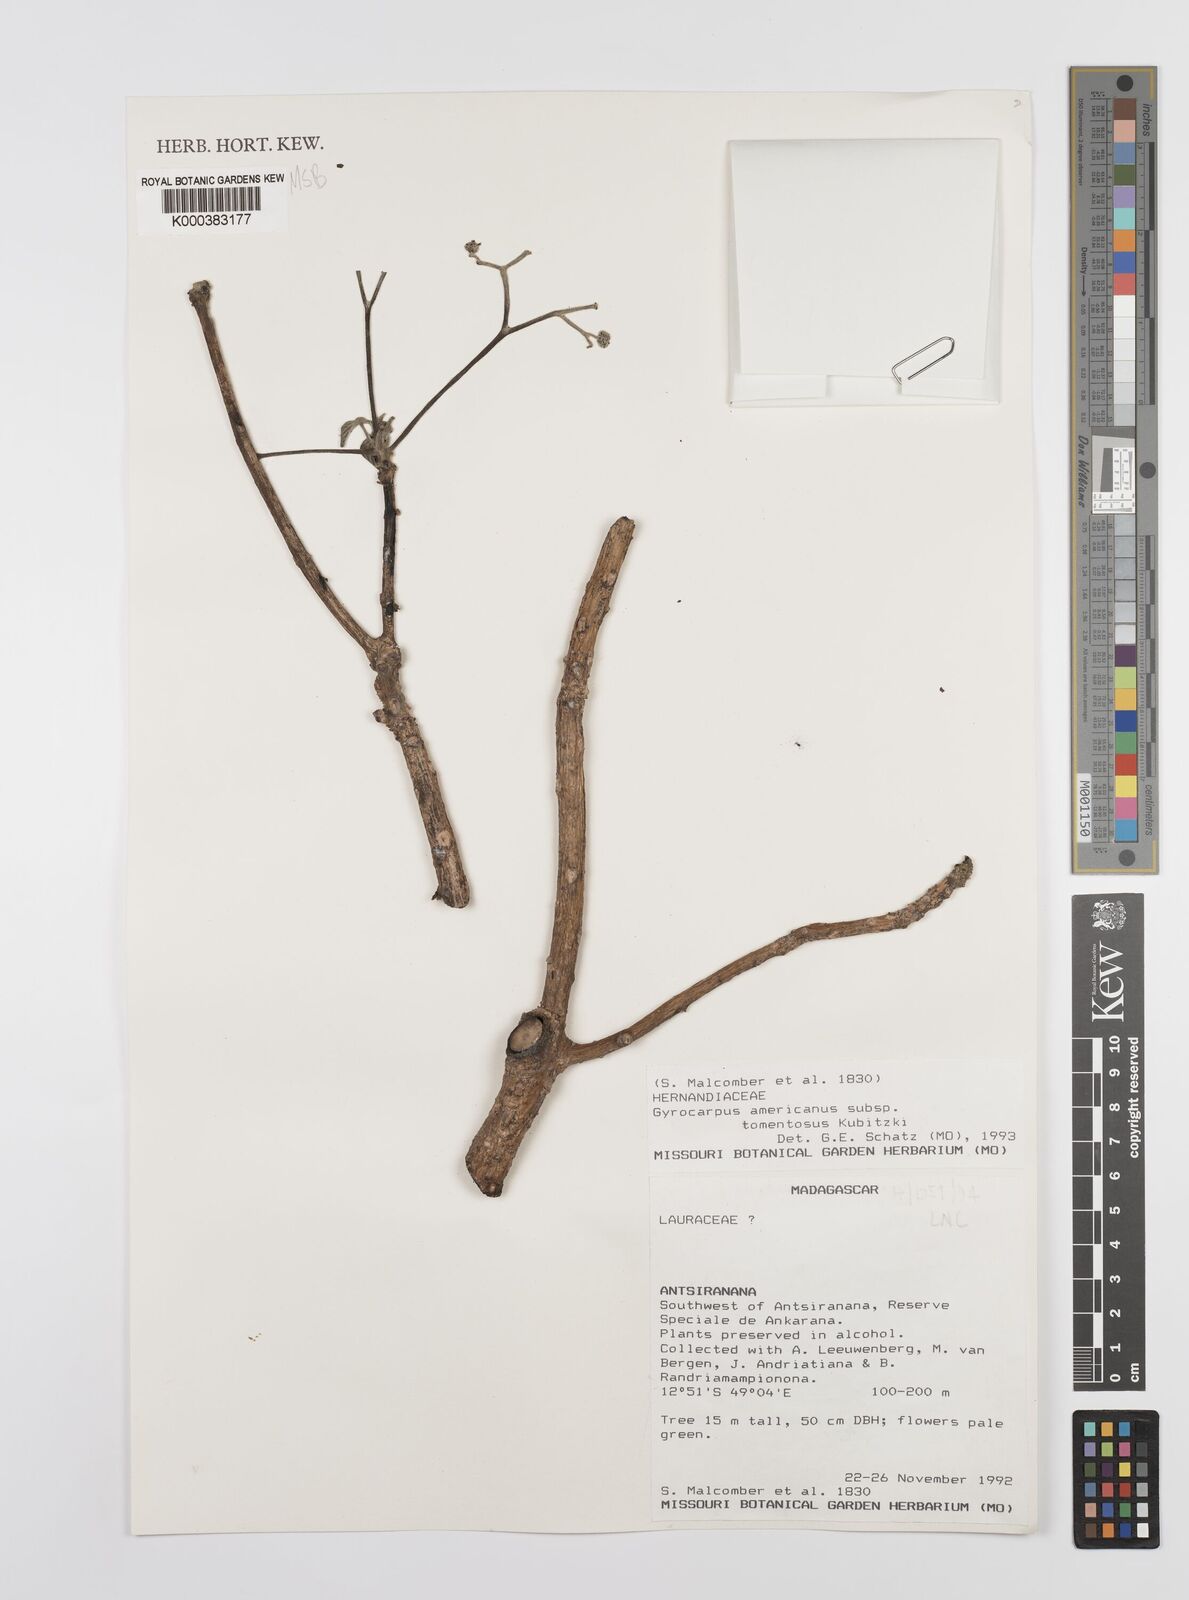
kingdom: Plantae
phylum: Tracheophyta
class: Magnoliopsida
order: Laurales
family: Hernandiaceae
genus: Gyrocarpus
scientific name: Gyrocarpus americanus
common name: Gyro damson
